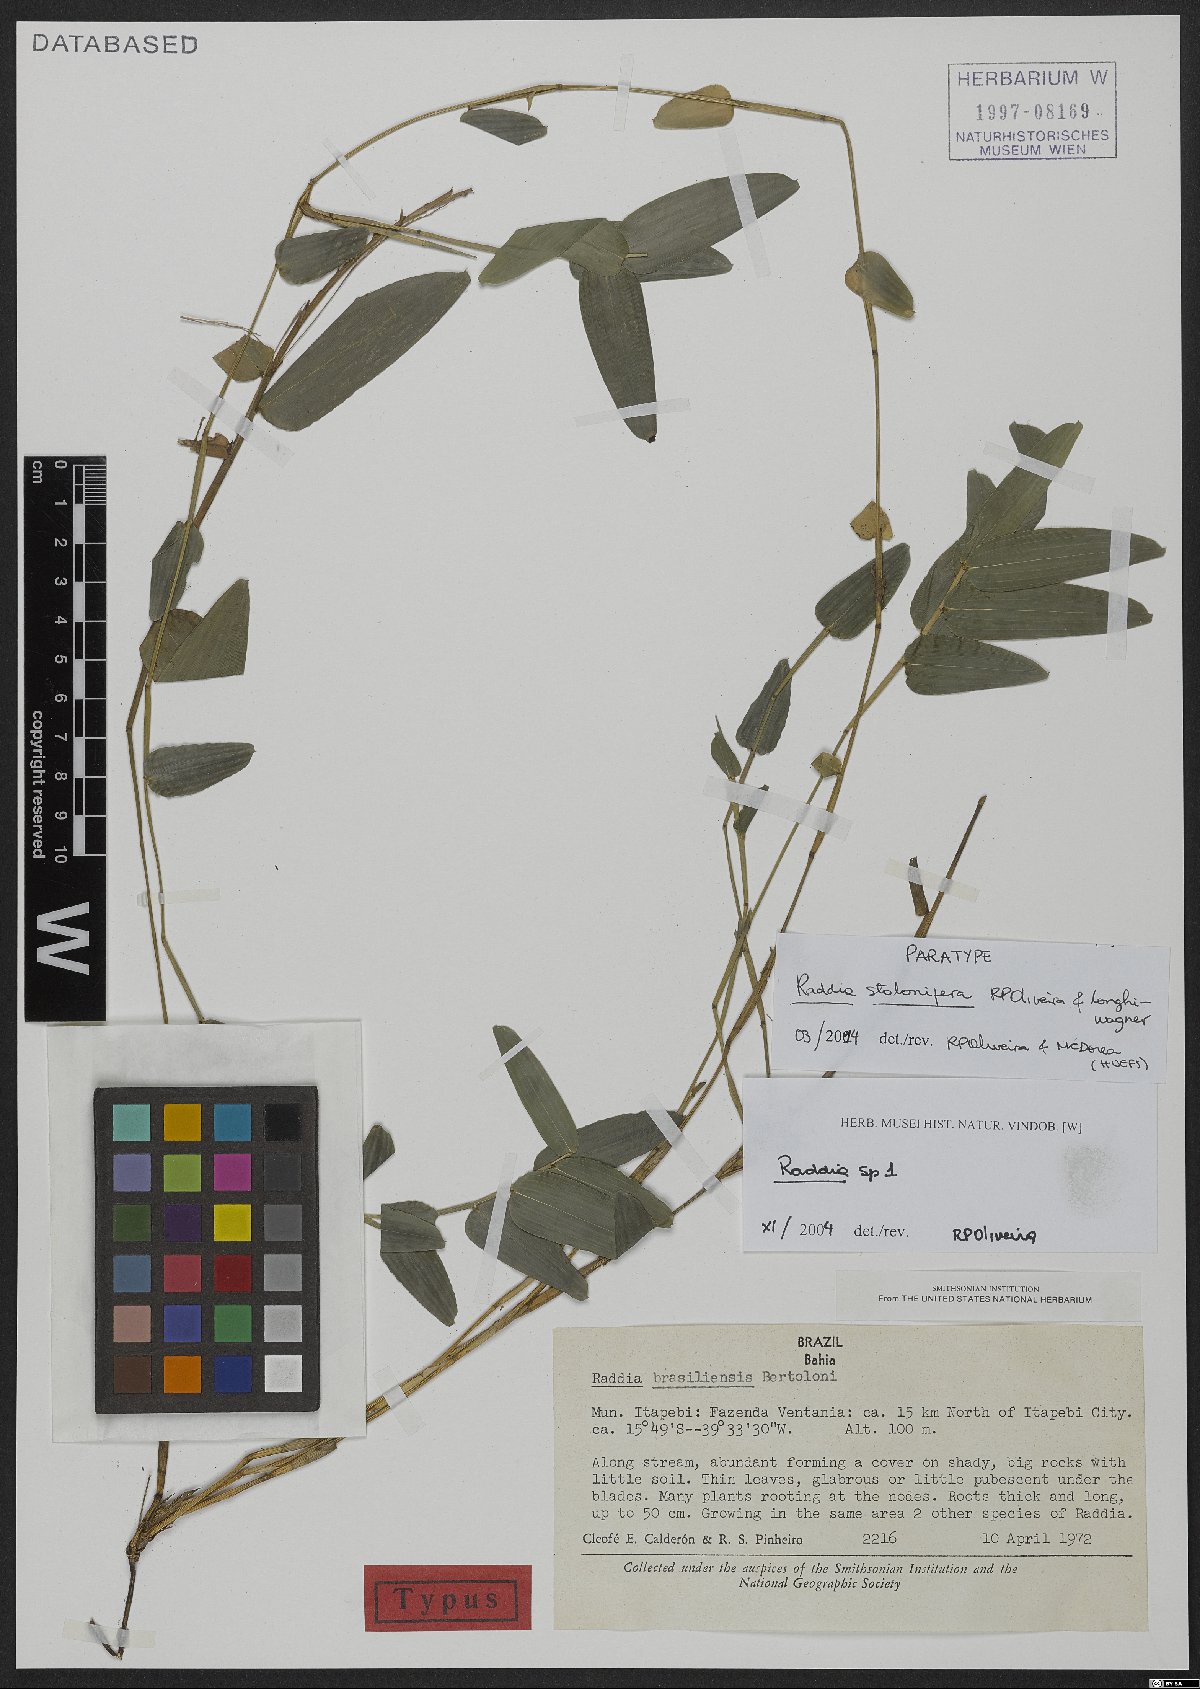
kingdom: Plantae
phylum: Tracheophyta
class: Liliopsida
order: Poales
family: Poaceae
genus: Raddia
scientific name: Raddia stolonifera
